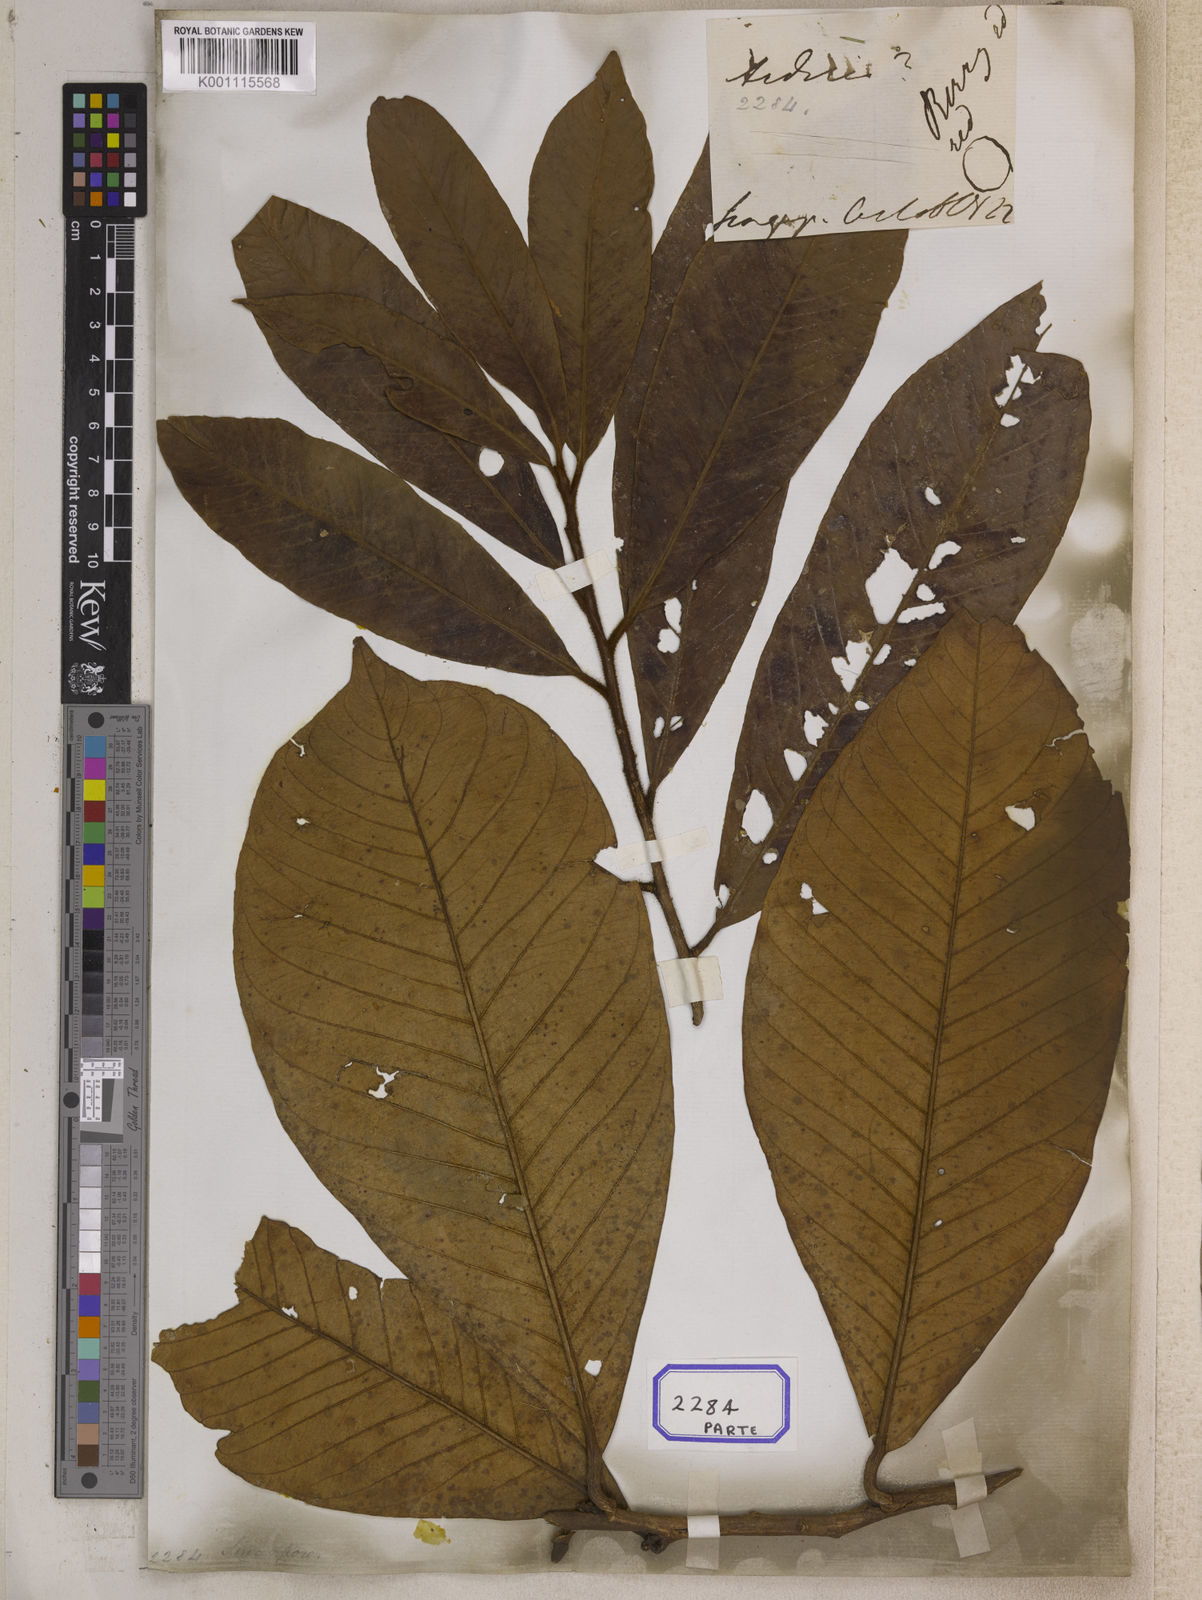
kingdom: Plantae
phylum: Tracheophyta
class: Magnoliopsida
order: Ericales
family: Primulaceae
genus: Ardisia
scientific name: Ardisia pachysandra
